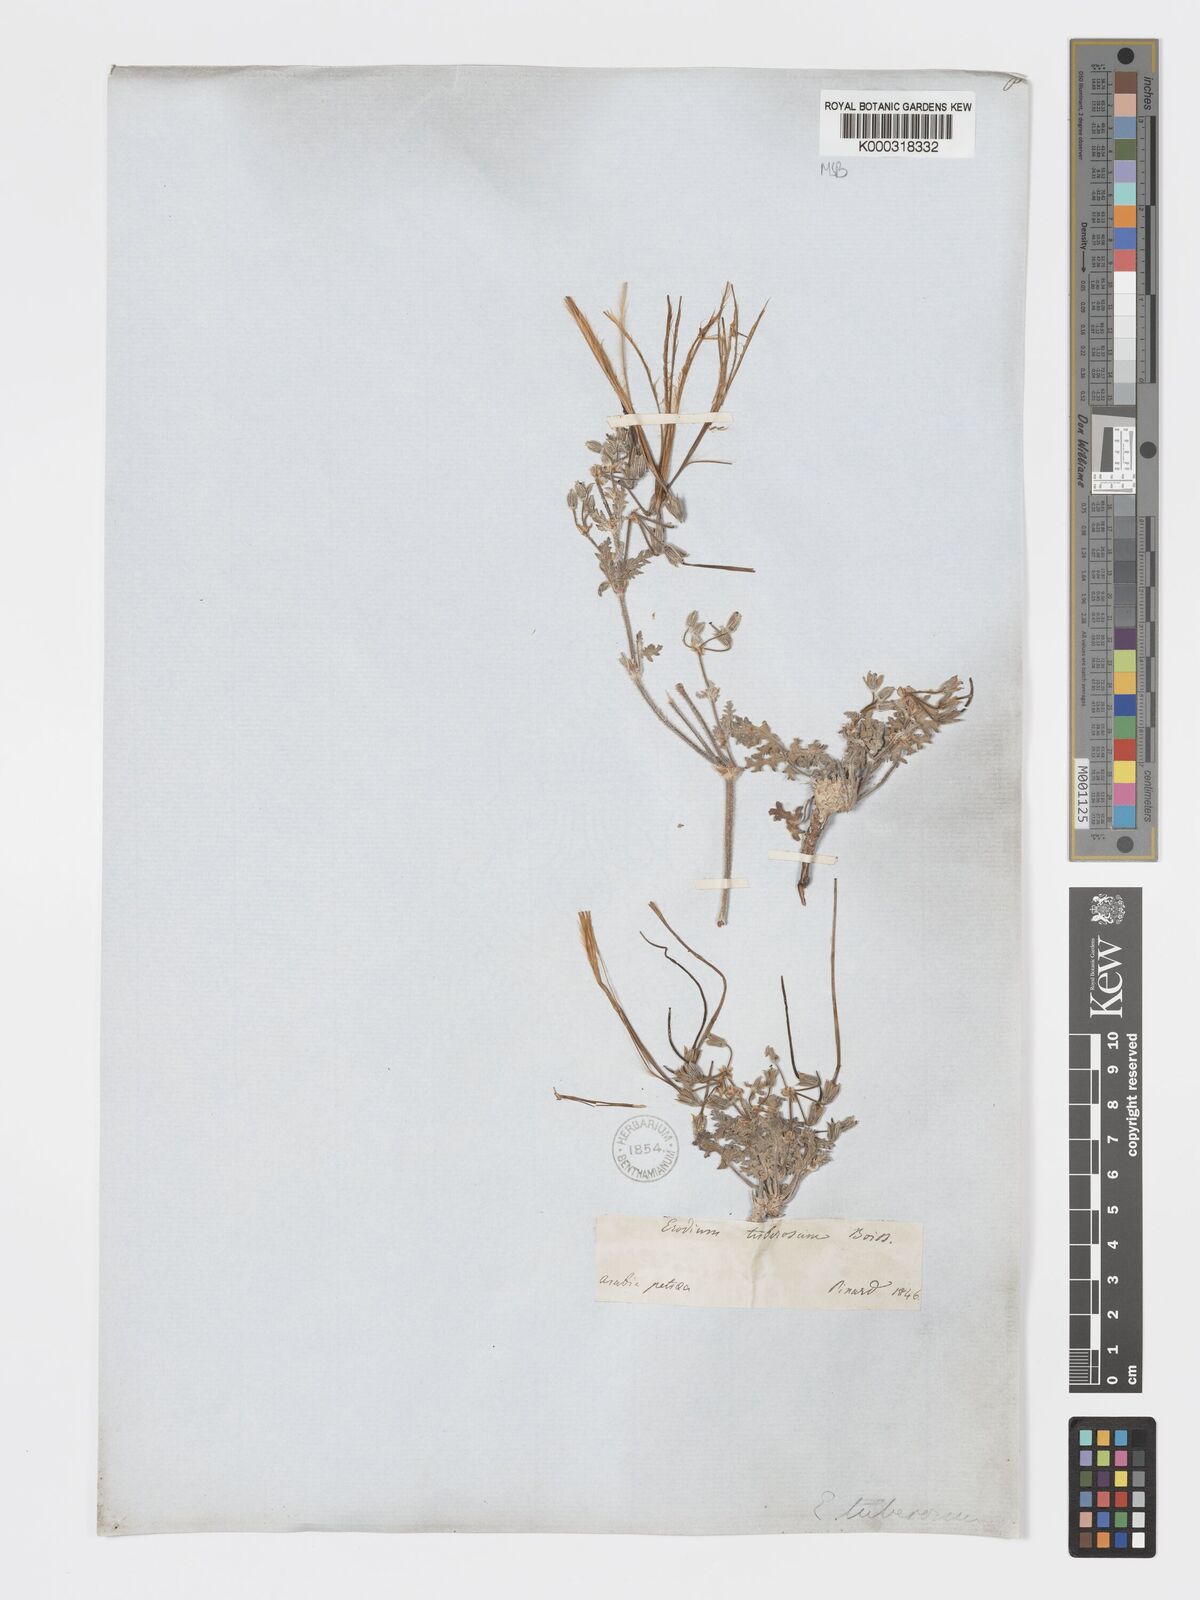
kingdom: Plantae
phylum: Tracheophyta
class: Magnoliopsida
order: Geraniales
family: Geraniaceae
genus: Erodium
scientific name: Erodium crassifolium
